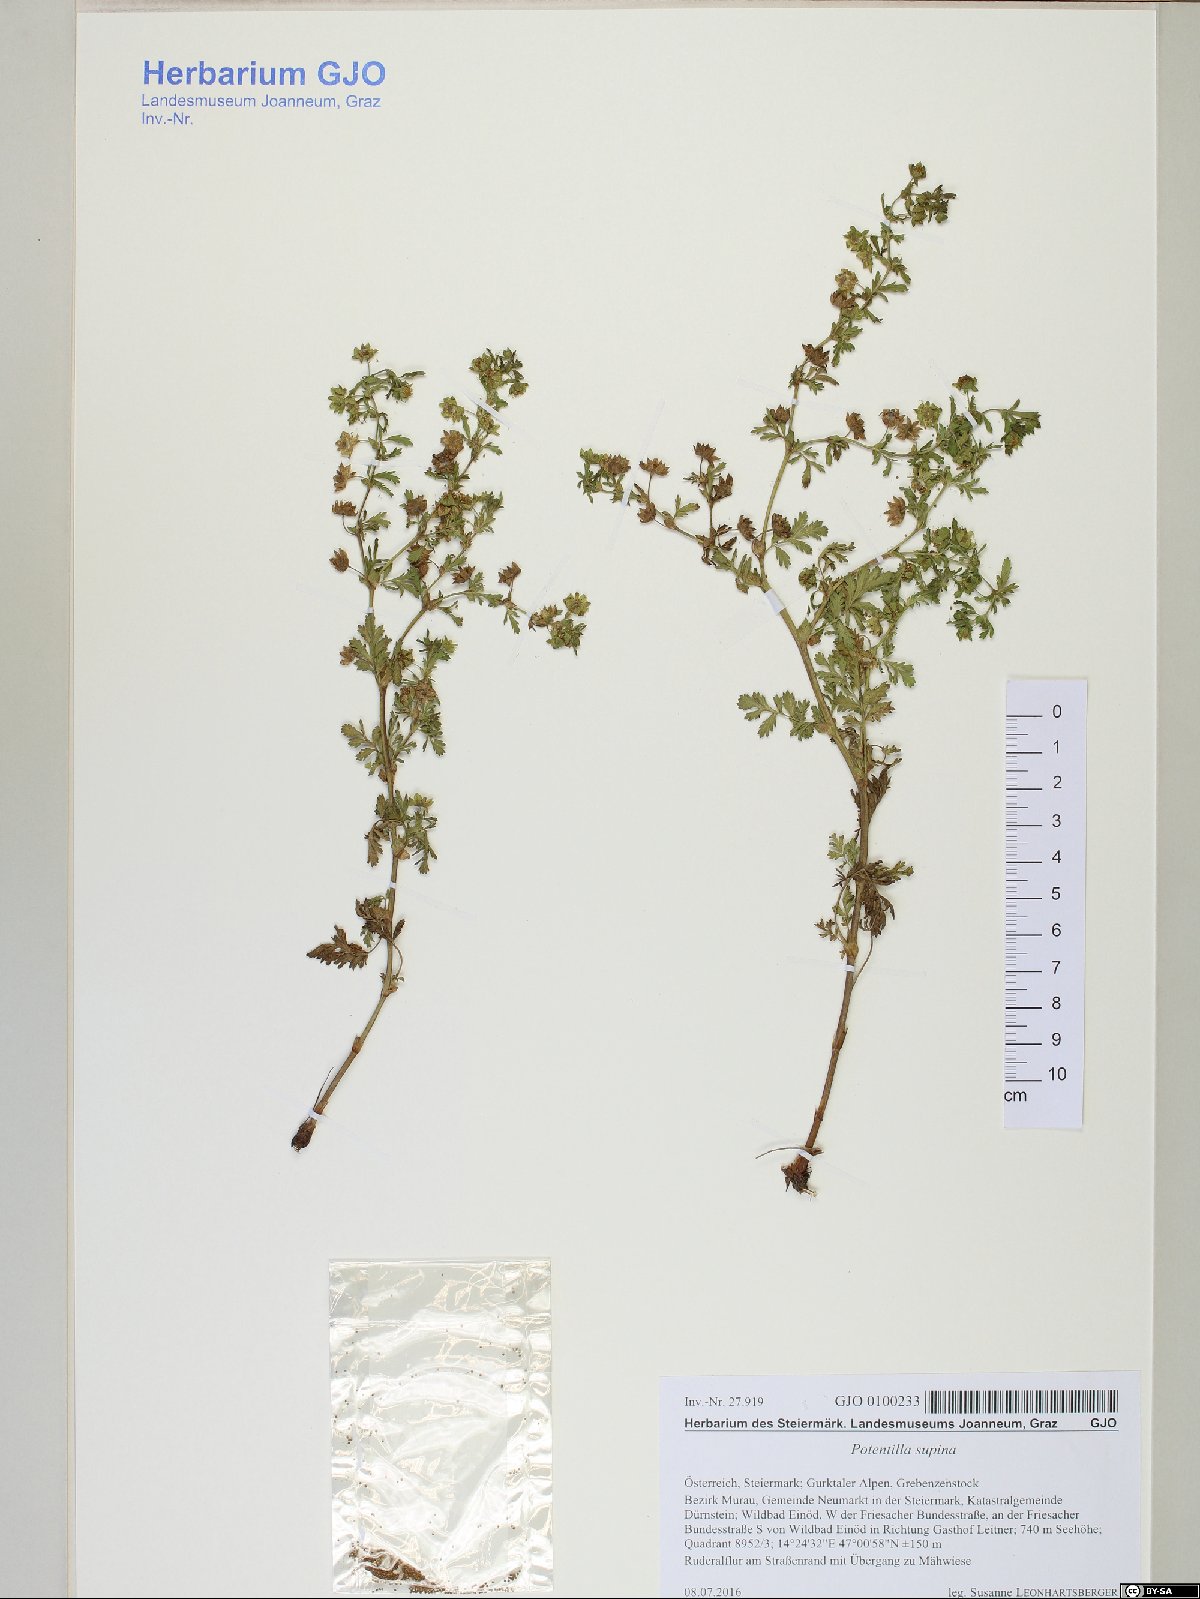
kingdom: Plantae
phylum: Tracheophyta
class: Magnoliopsida
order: Rosales
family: Rosaceae
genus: Potentilla
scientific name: Potentilla supina
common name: Prostrate cinquefoil
